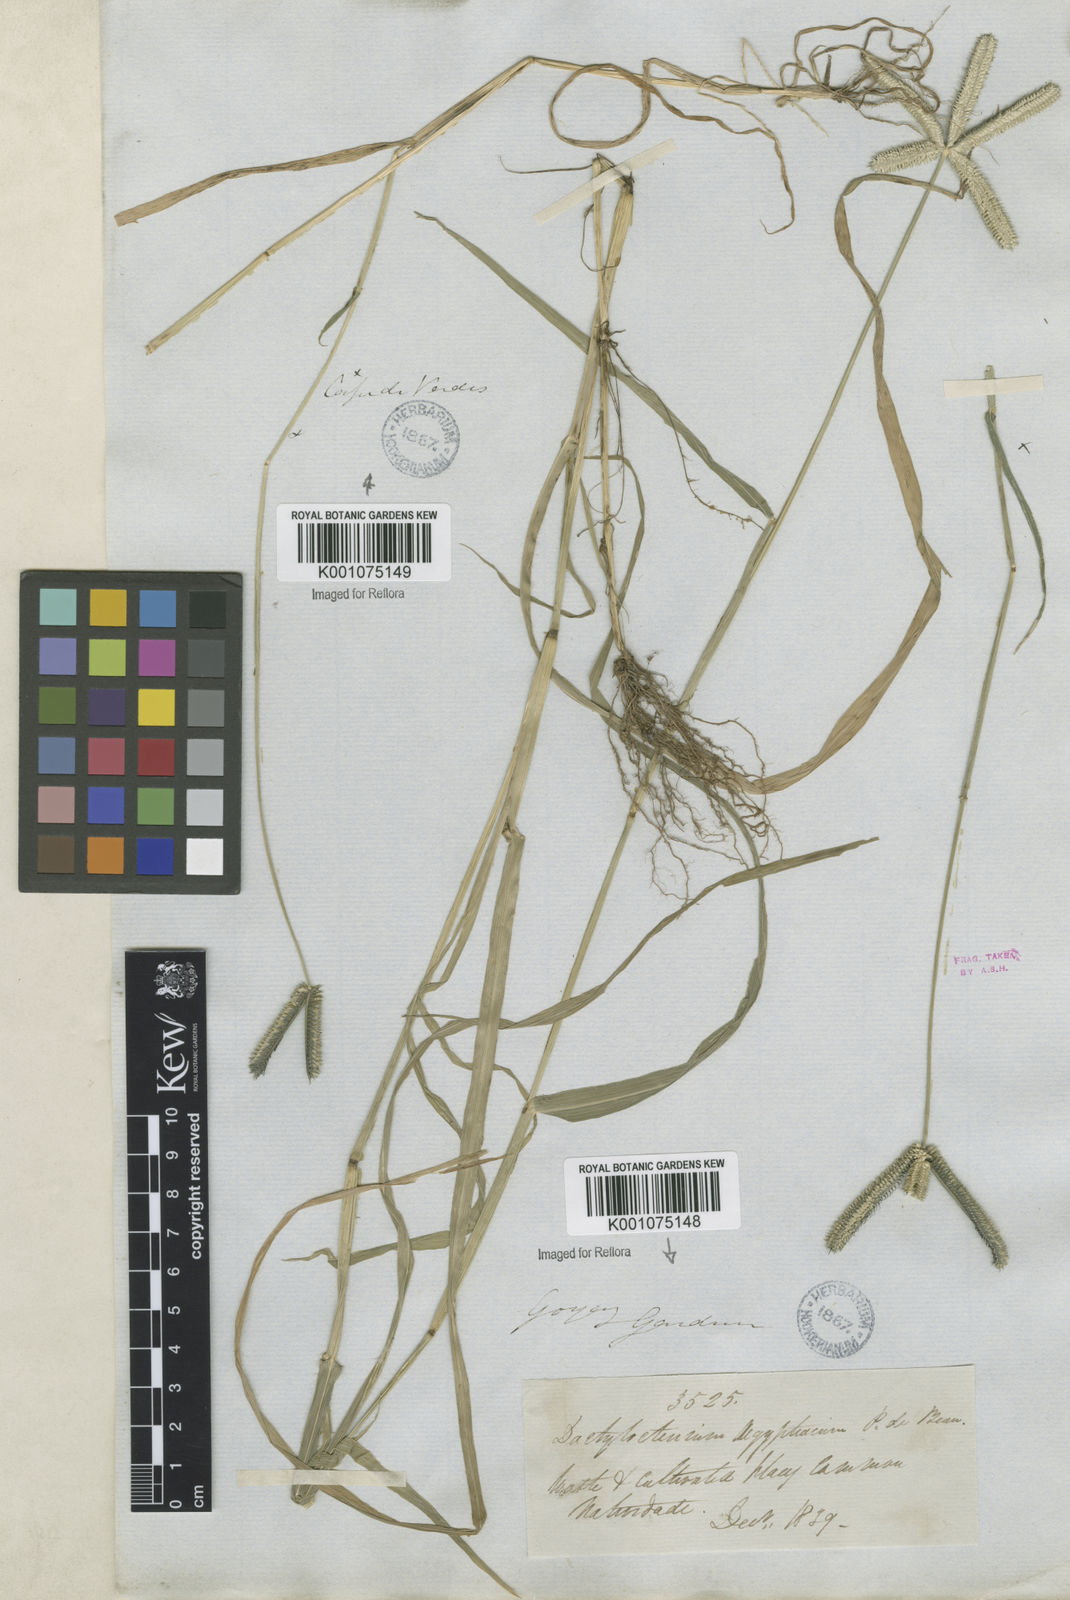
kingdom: Plantae
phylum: Tracheophyta
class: Liliopsida
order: Poales
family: Poaceae
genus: Dactyloctenium
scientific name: Dactyloctenium aegyptium
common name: Egyptian grass
